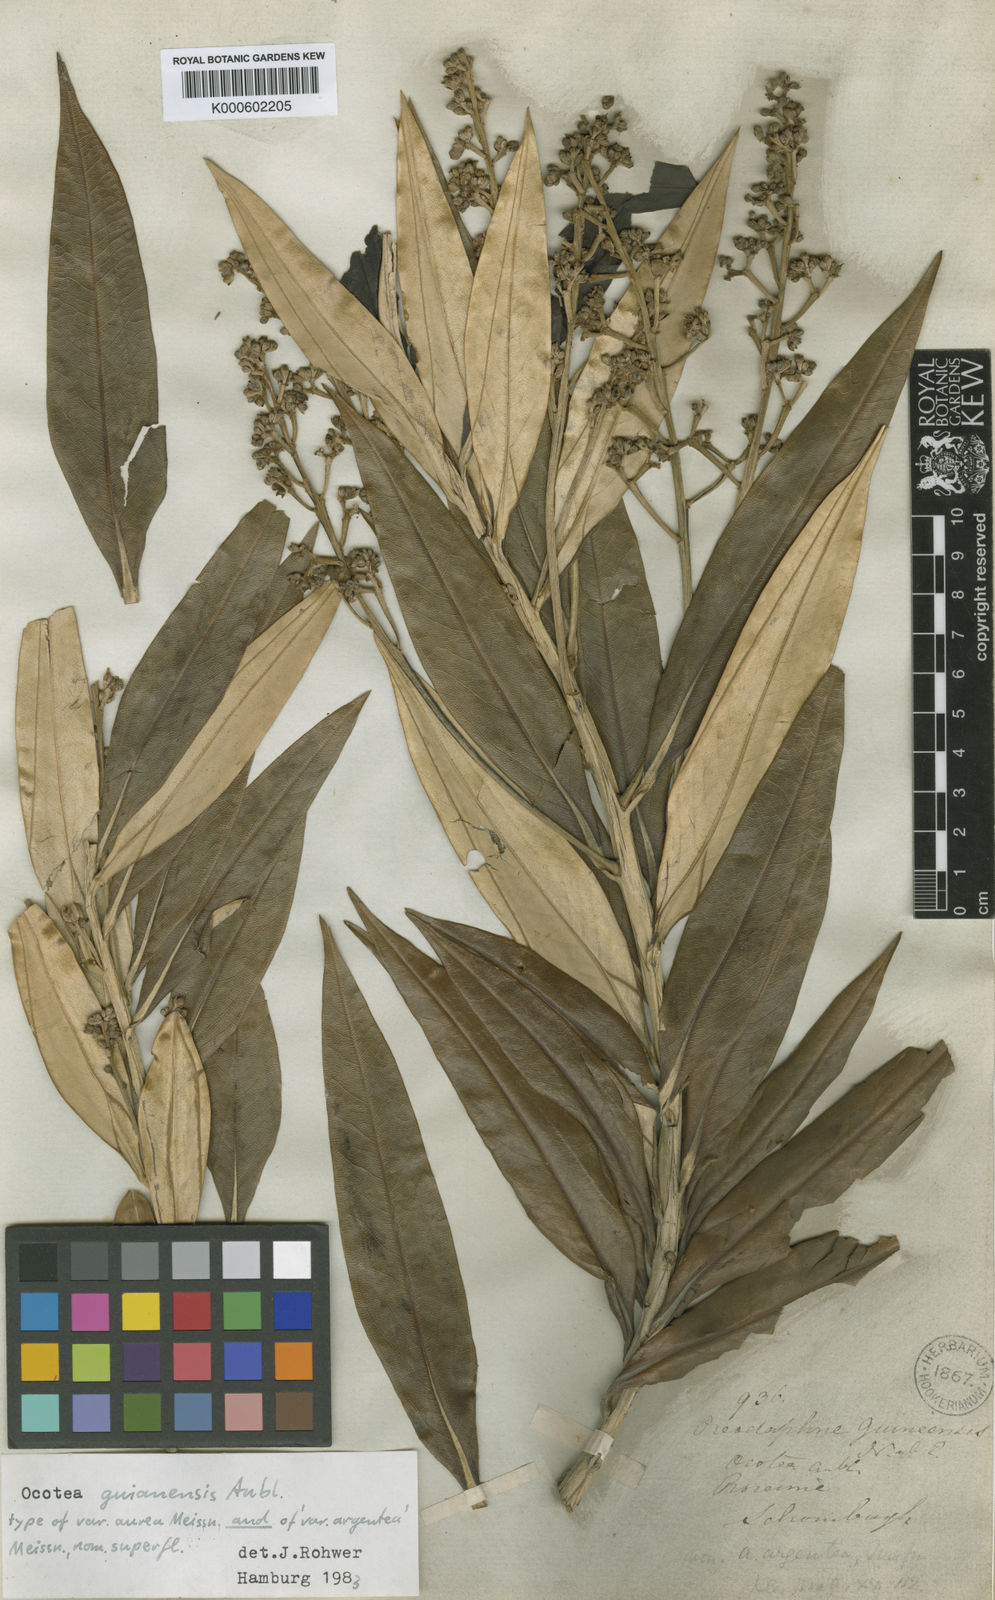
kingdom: Plantae
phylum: Tracheophyta
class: Magnoliopsida
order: Laurales
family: Lauraceae
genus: Ocotea
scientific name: Ocotea guianensis
